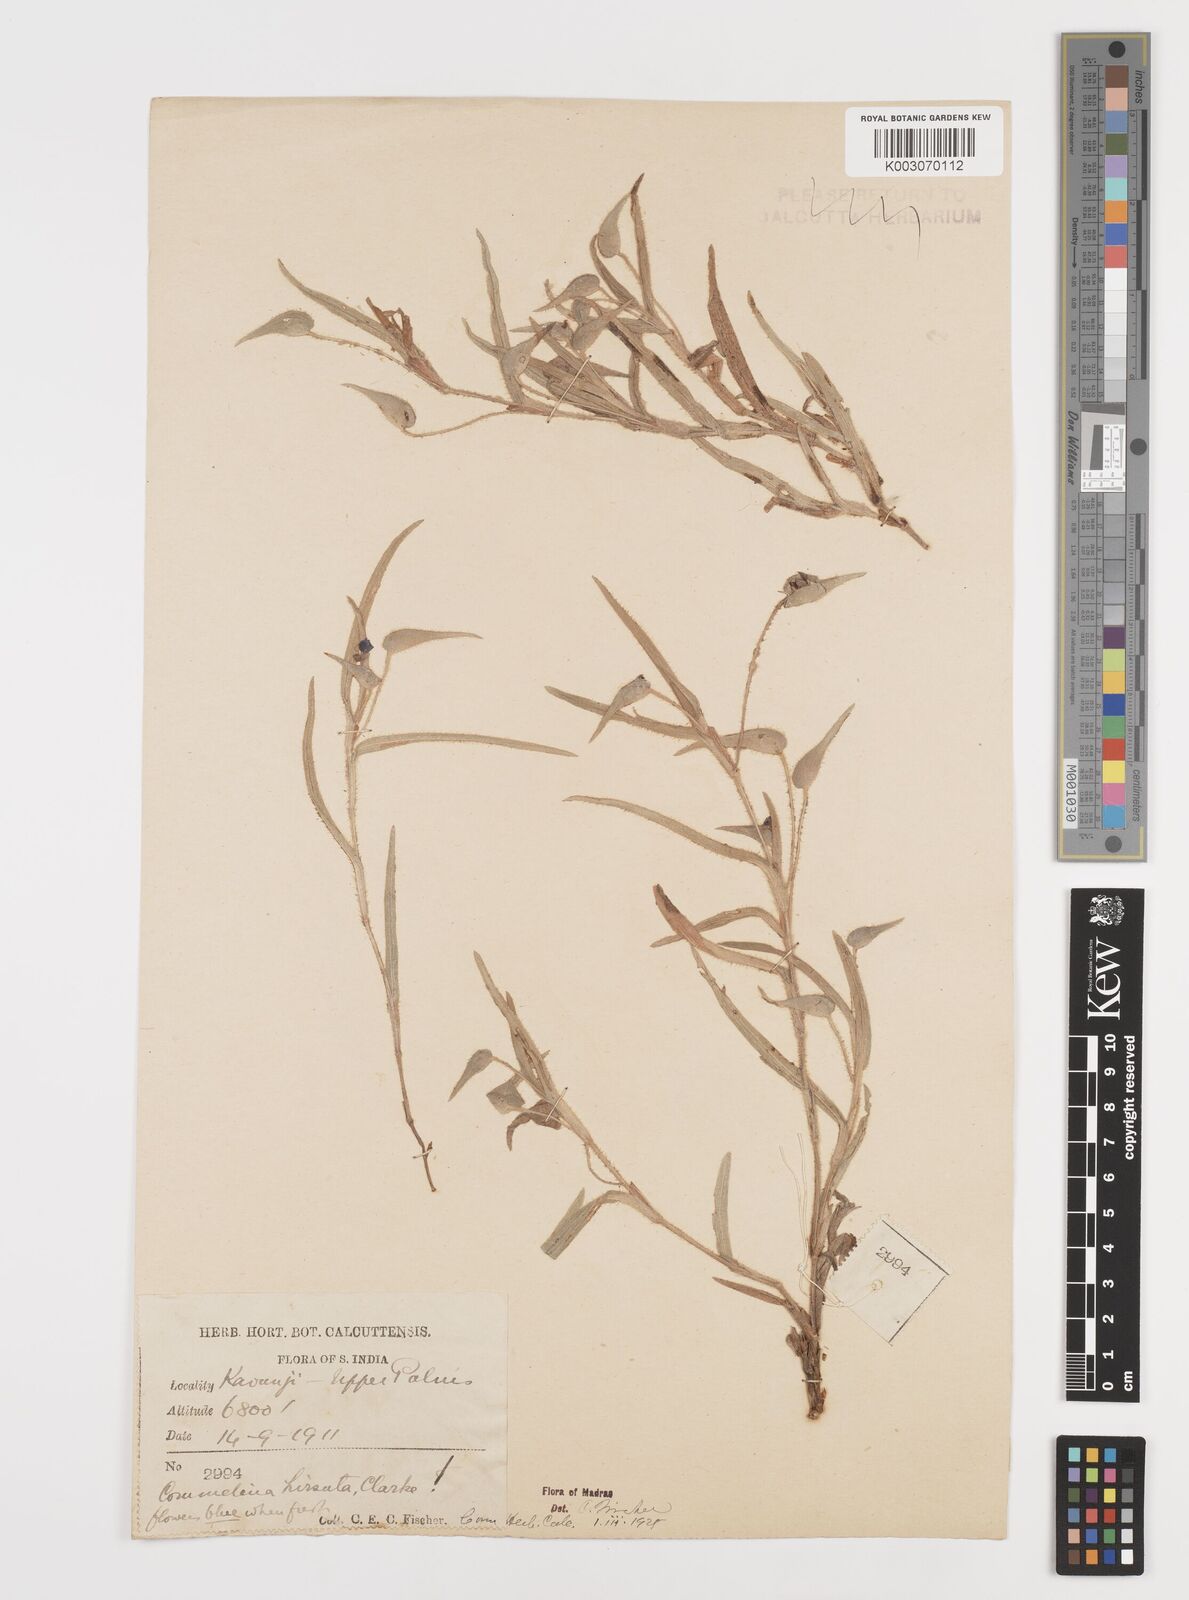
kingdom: Plantae
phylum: Tracheophyta
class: Liliopsida
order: Commelinales
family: Commelinaceae
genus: Commelina
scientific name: Commelina hirsuta
